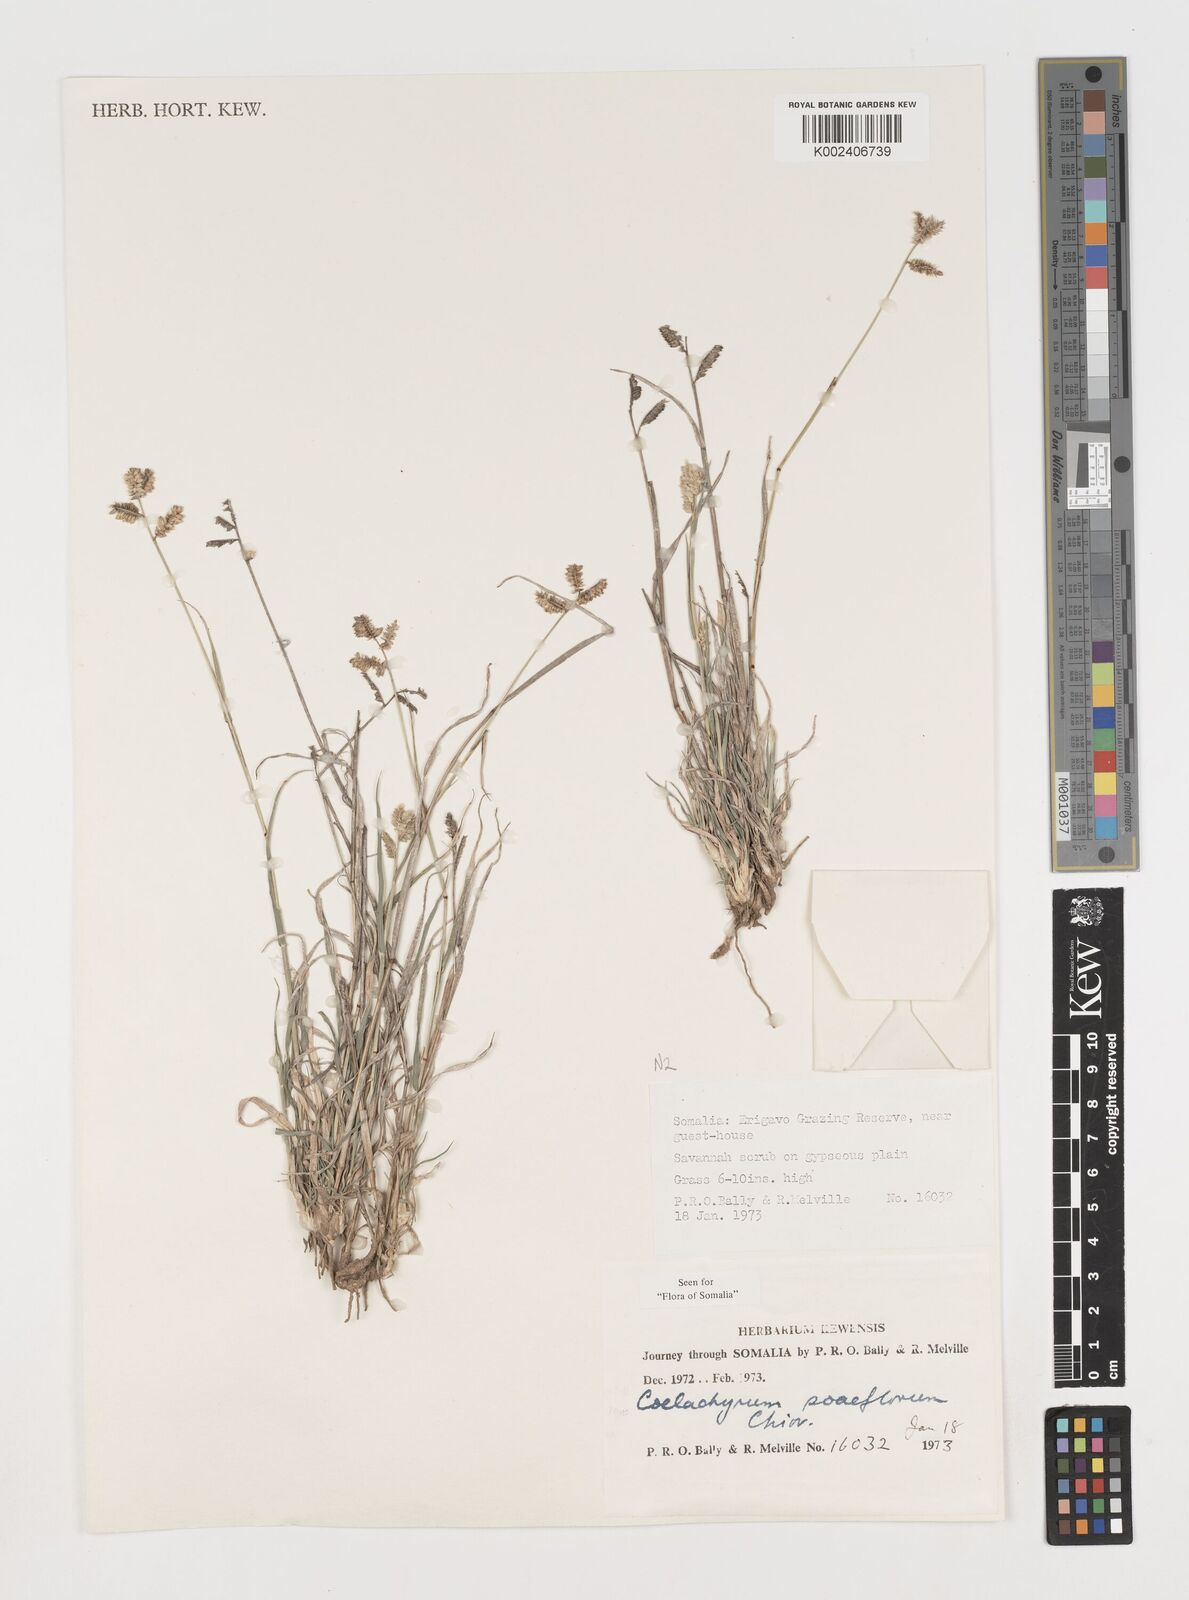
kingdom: Plantae
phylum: Tracheophyta
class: Liliopsida
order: Poales
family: Poaceae
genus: Coelachyrum
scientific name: Coelachyrum poiflorum
